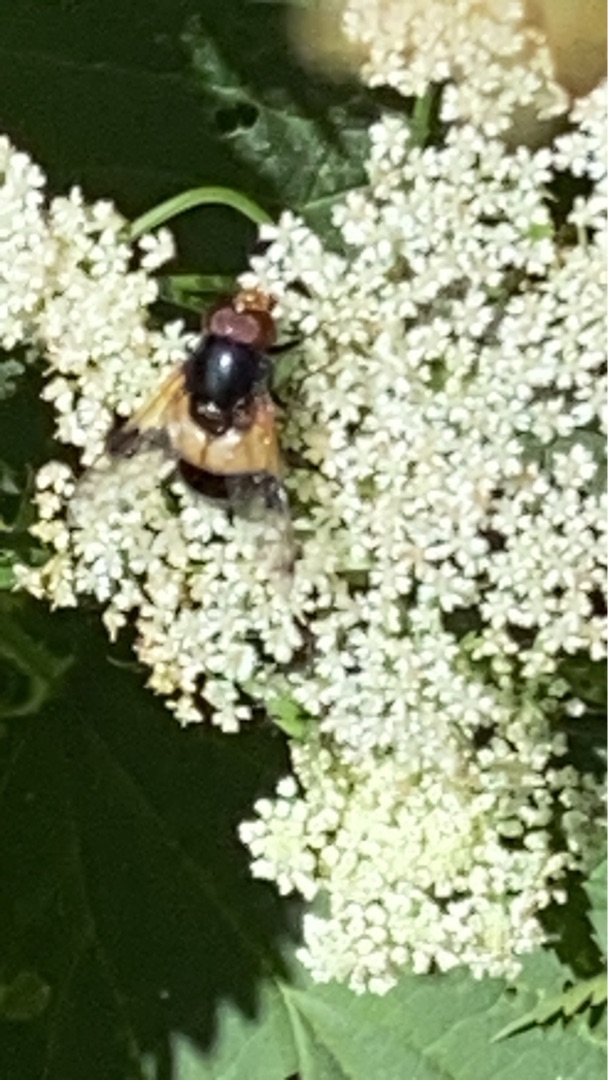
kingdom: Animalia
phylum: Arthropoda
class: Insecta
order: Diptera
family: Syrphidae
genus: Volucella
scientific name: Volucella pellucens
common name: Hvidbåndet humlesvirreflue
